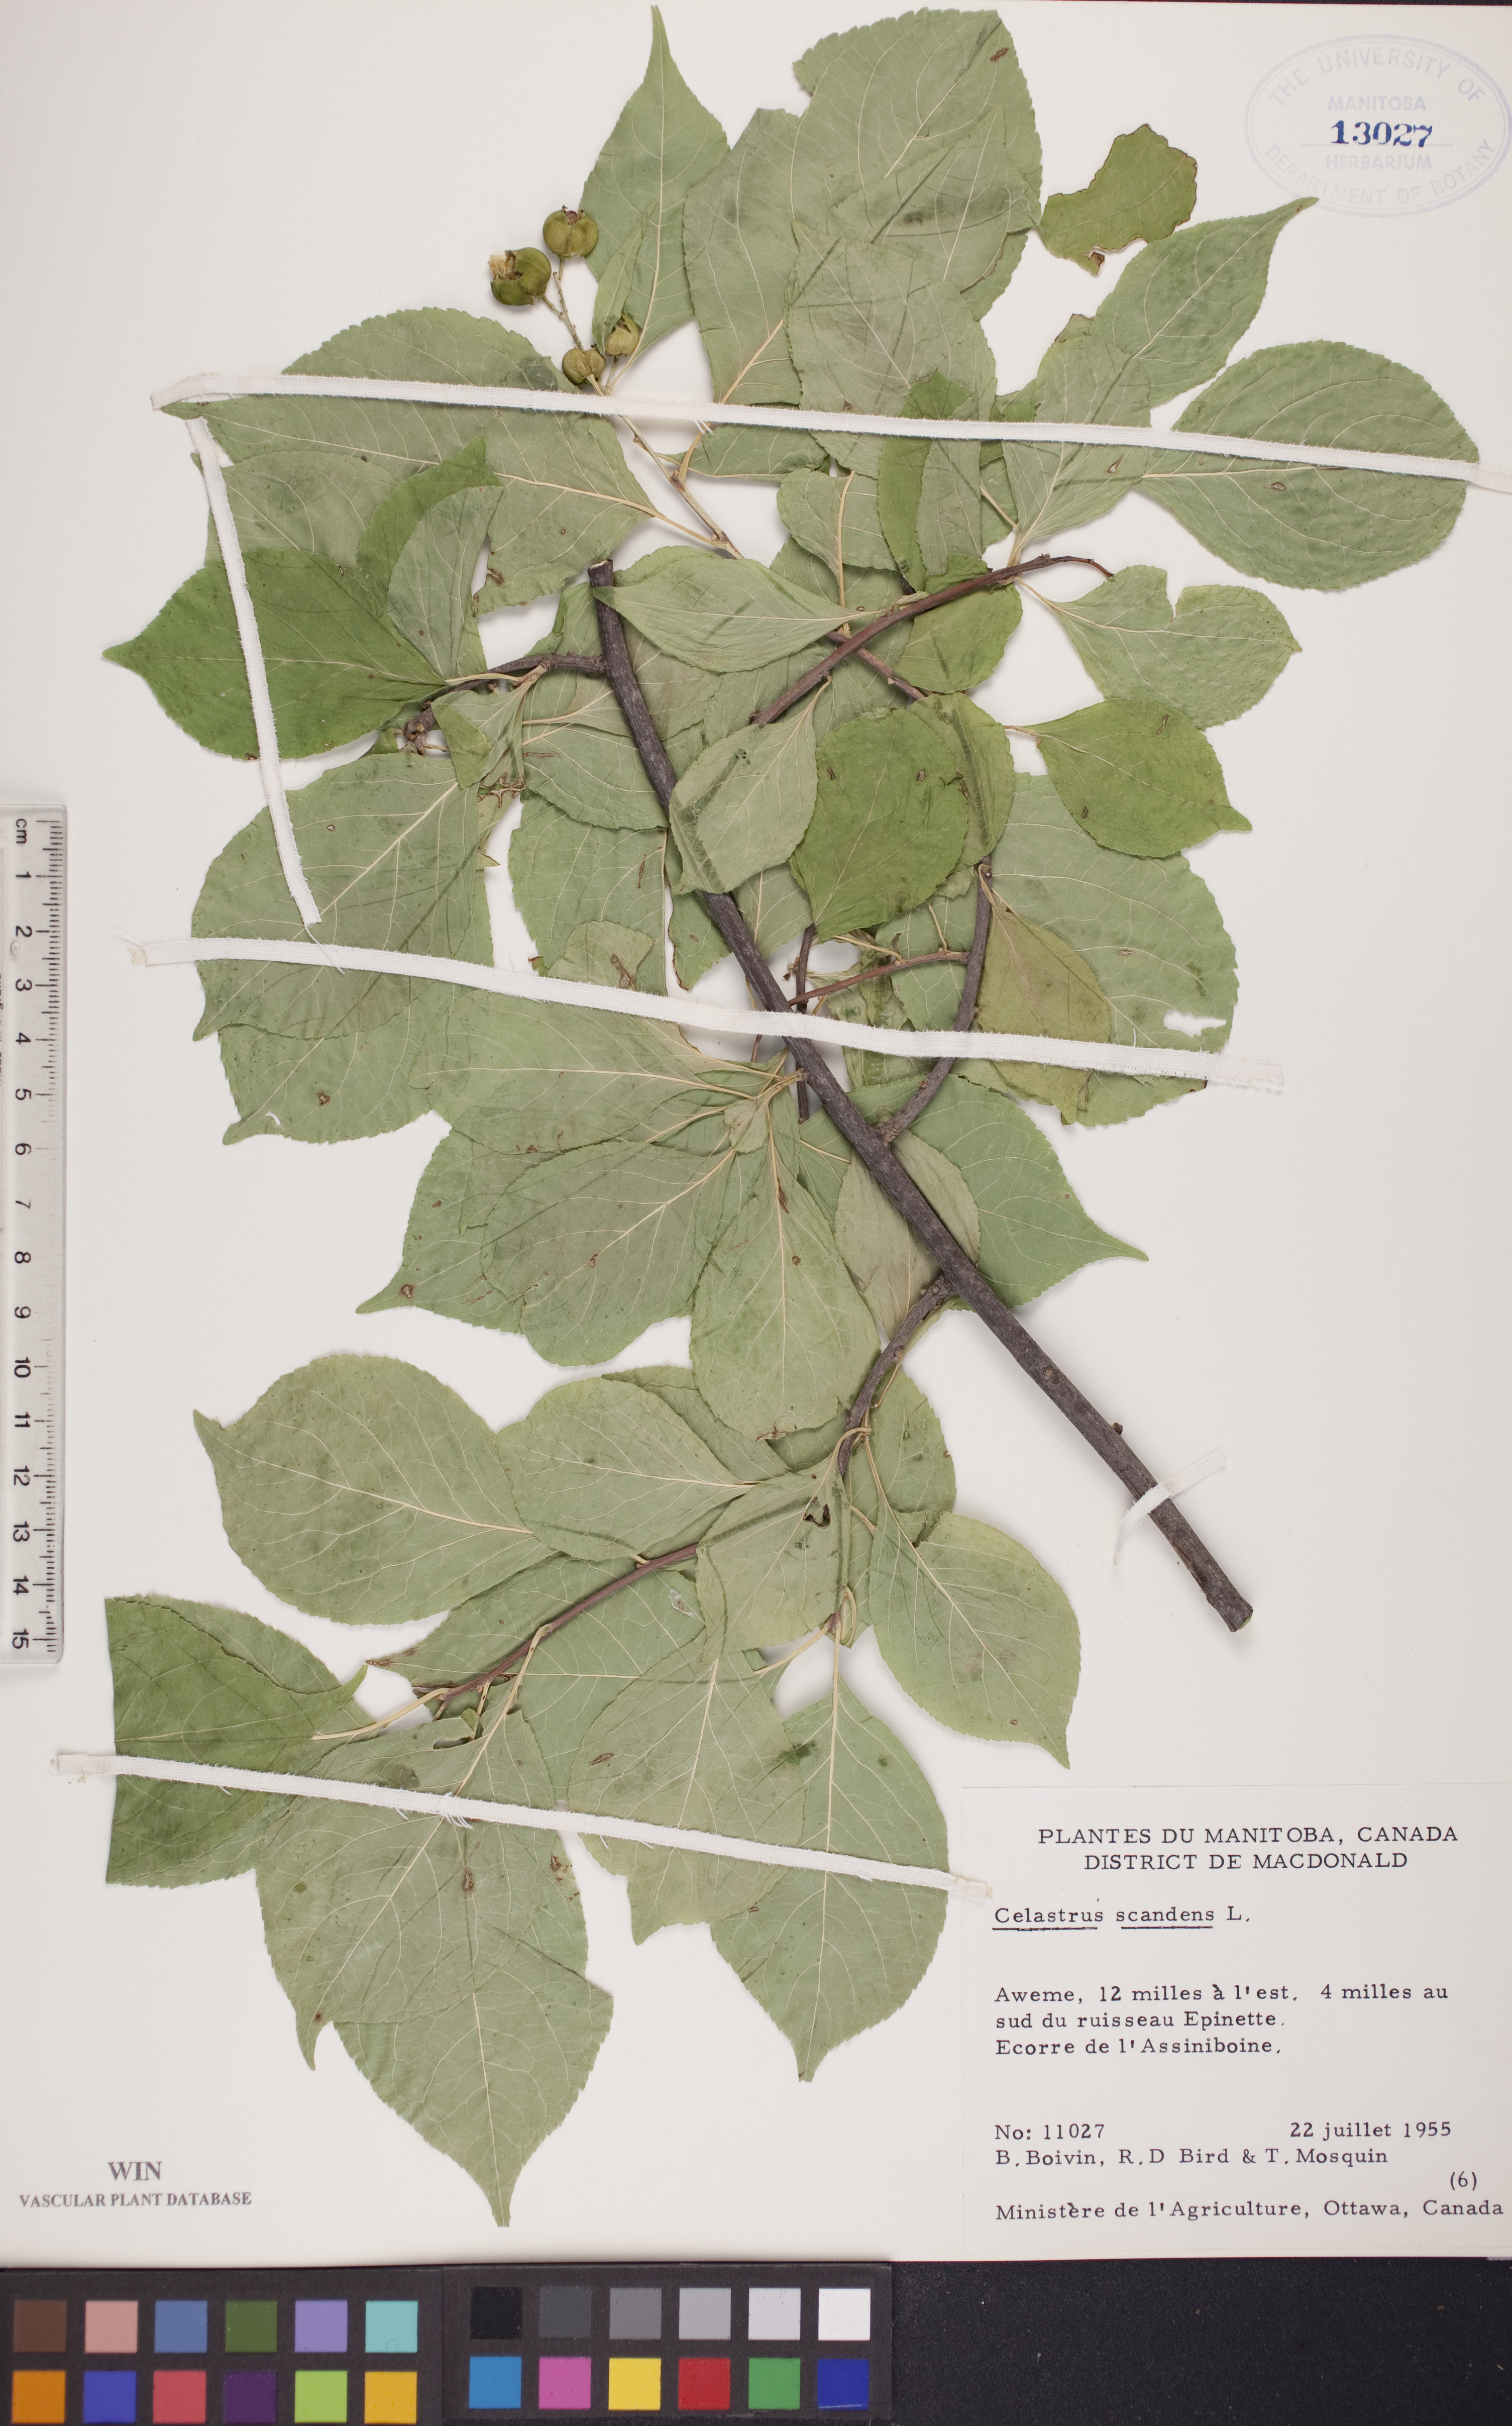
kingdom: Plantae
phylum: Tracheophyta
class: Magnoliopsida
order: Celastrales
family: Celastraceae
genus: Celastrus
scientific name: Celastrus scandens
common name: American bittersweet
